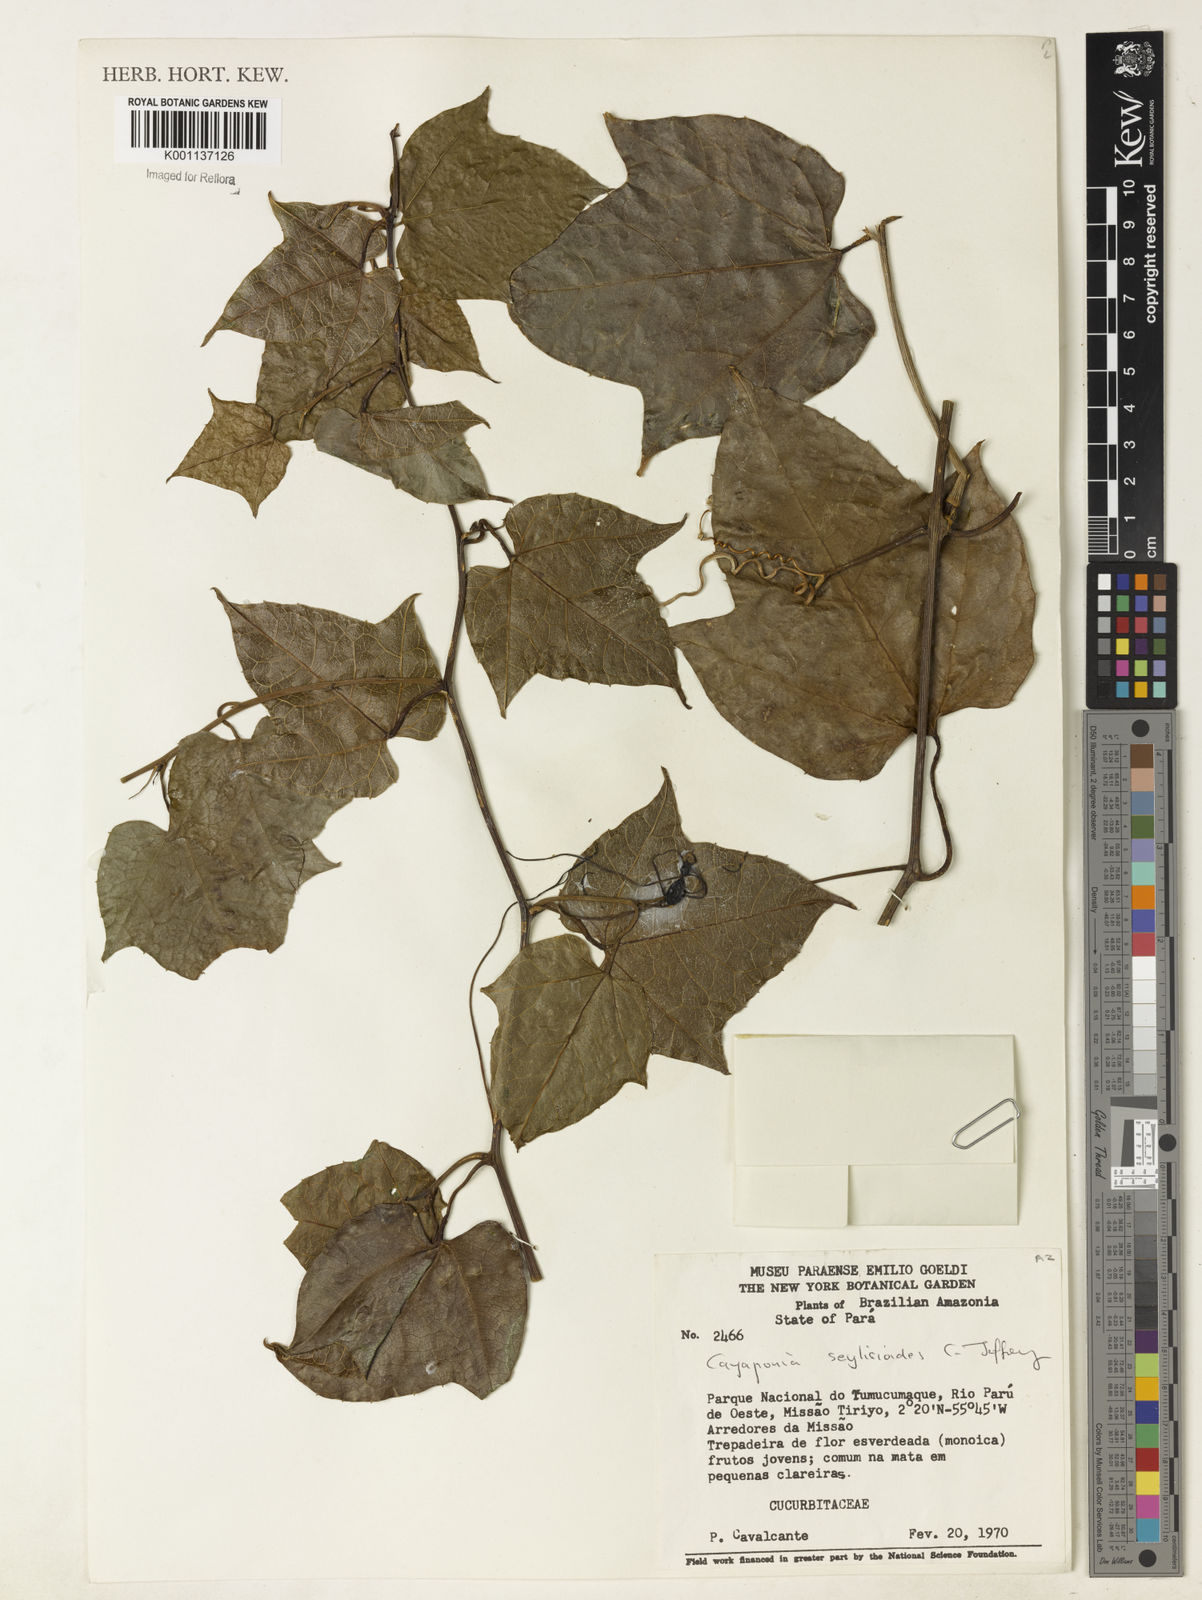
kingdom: Plantae
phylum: Tracheophyta
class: Magnoliopsida
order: Cucurbitales
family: Cucurbitaceae
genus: Cayaponia
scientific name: Cayaponia selysioides
